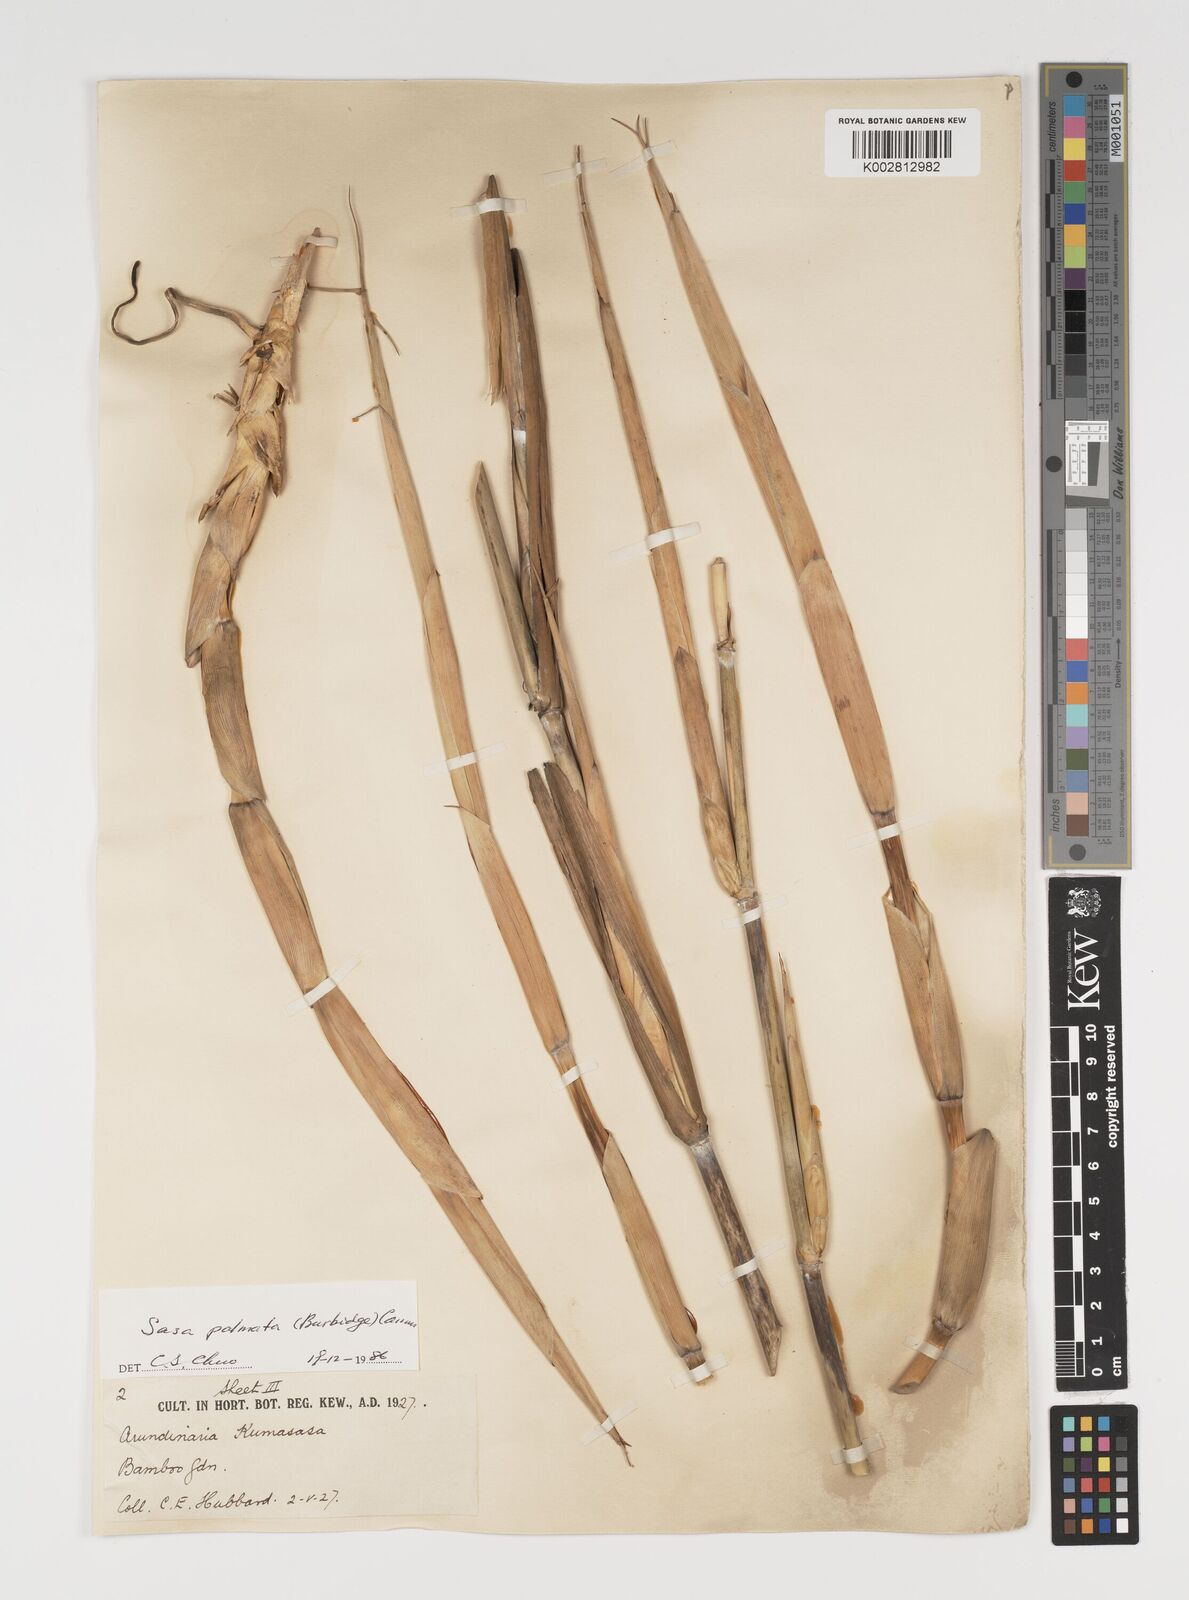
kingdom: Plantae
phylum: Tracheophyta
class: Liliopsida
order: Poales
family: Poaceae
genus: Sasa
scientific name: Sasa palmata
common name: Broad-leaved bamboo
